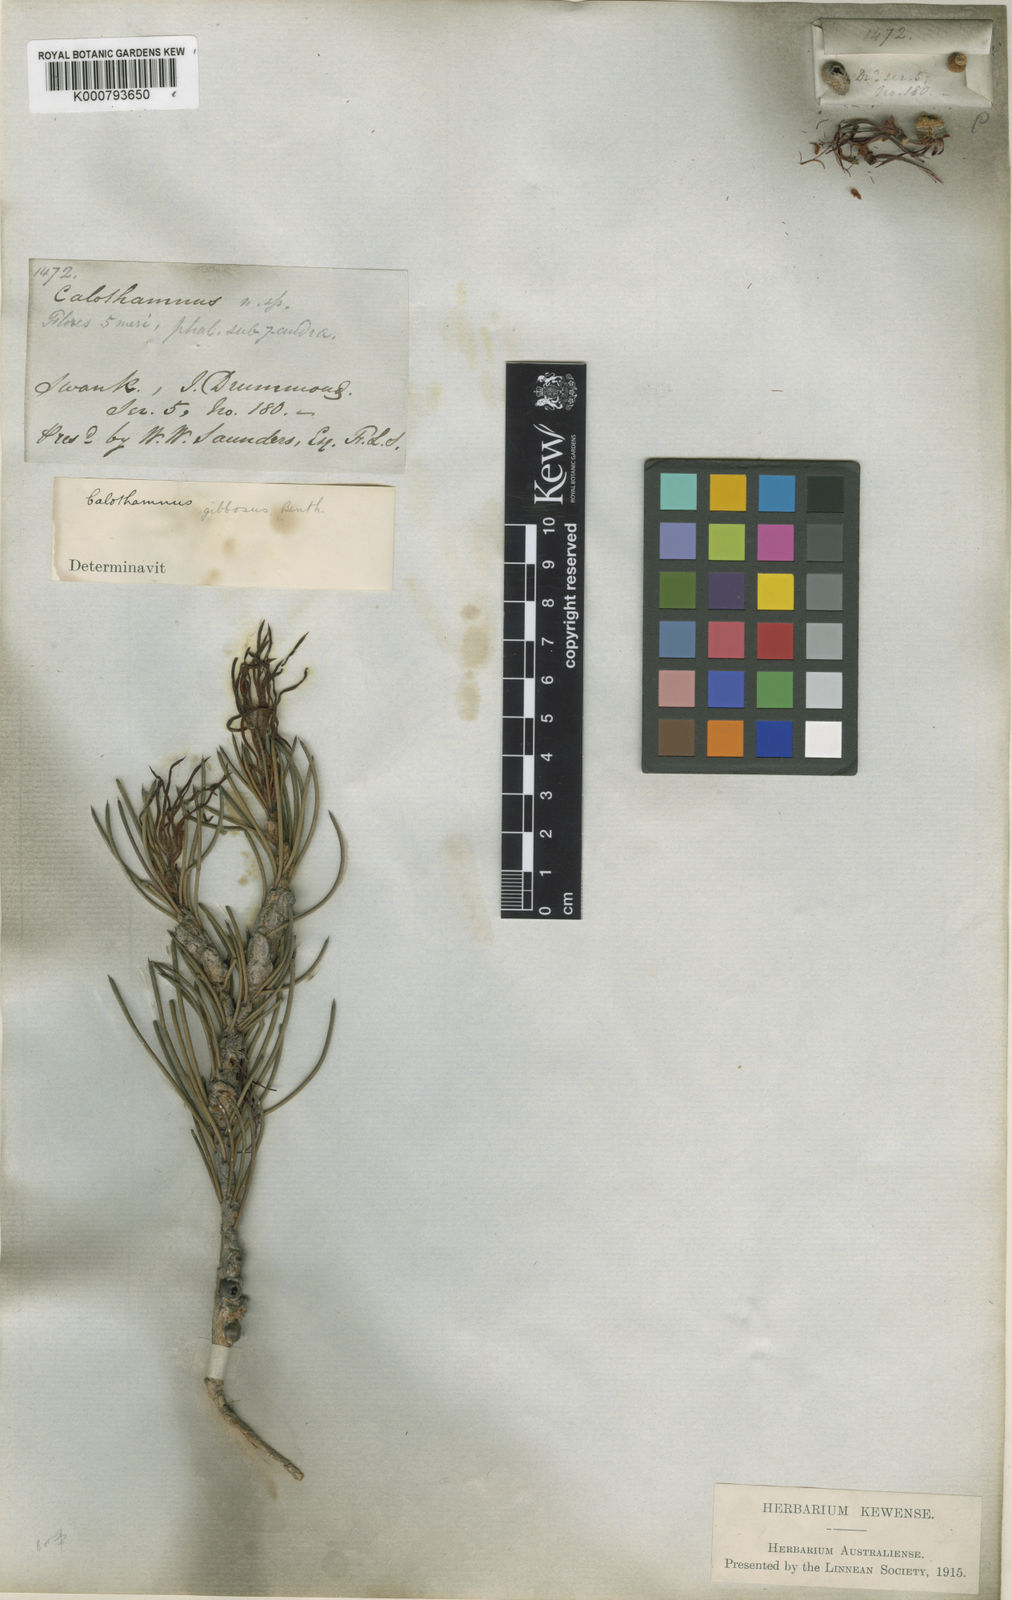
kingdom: Plantae
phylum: Tracheophyta
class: Magnoliopsida
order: Myrtales
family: Myrtaceae
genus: Melaleuca
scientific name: Melaleuca protumida
